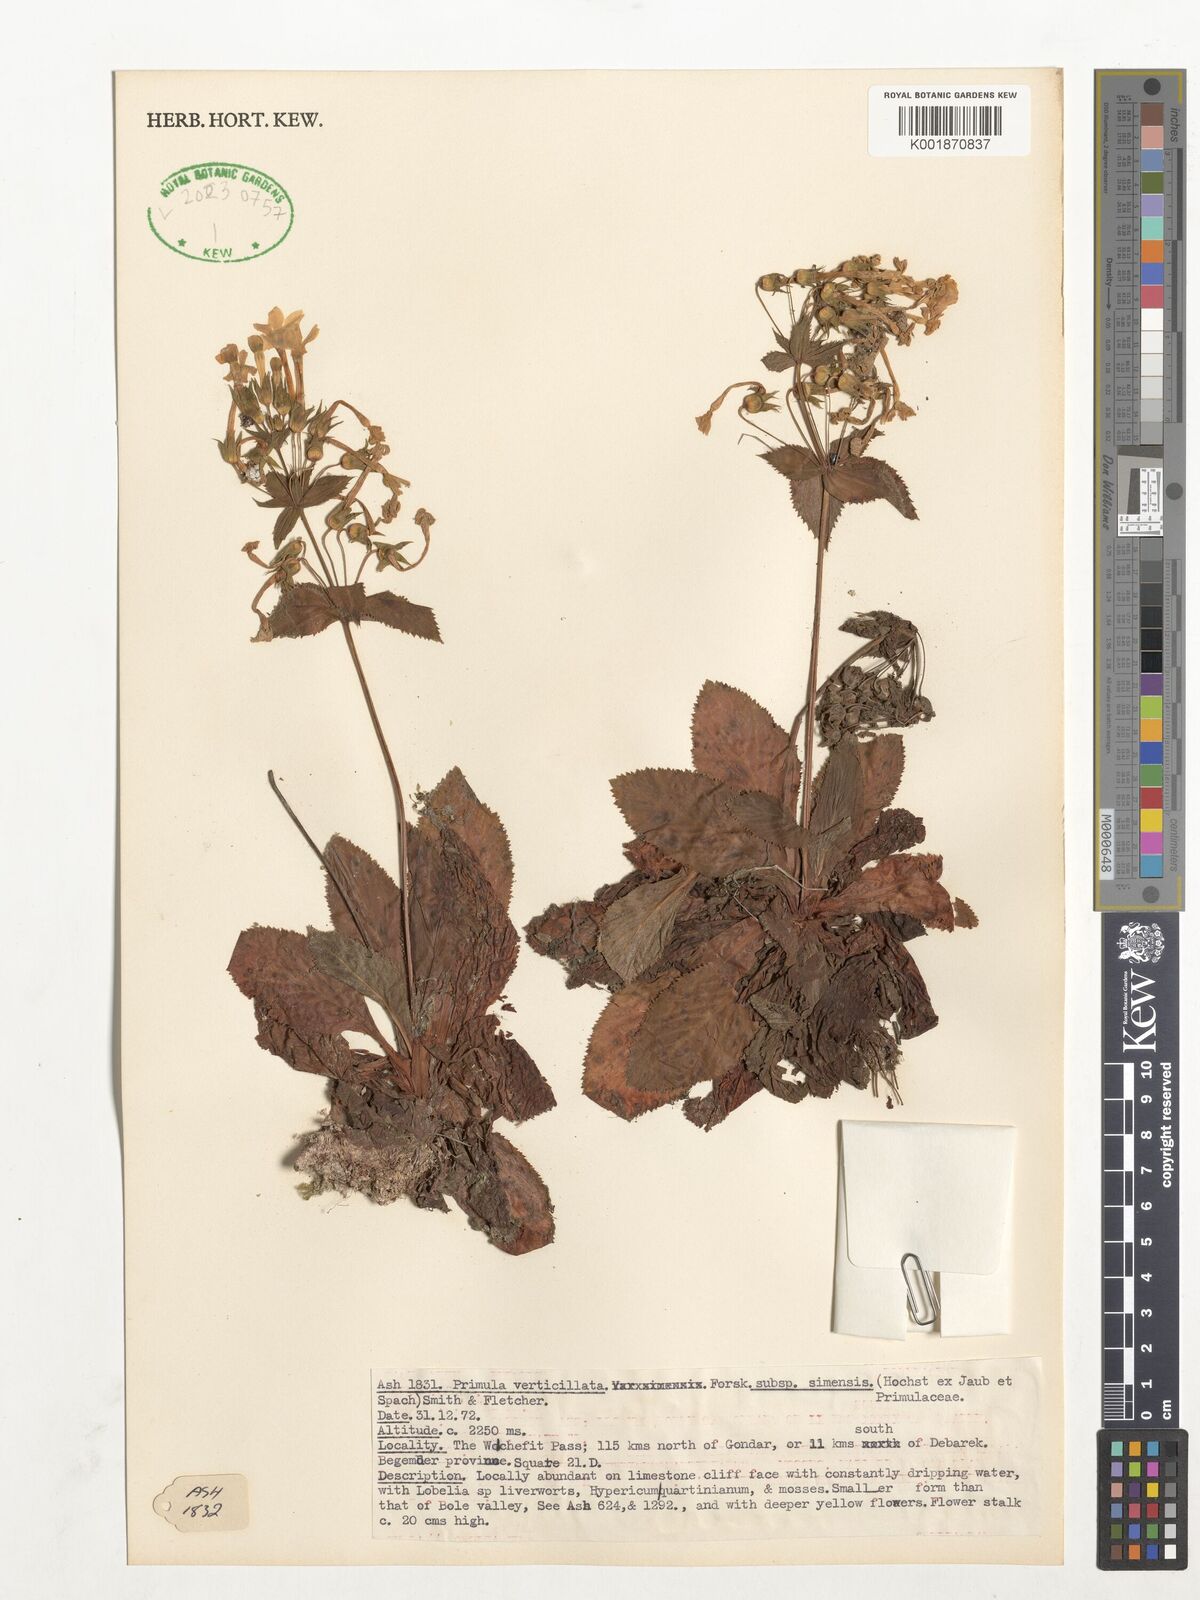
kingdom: Plantae
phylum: Tracheophyta
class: Magnoliopsida
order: Ericales
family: Primulaceae
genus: Evotrochis
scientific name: Evotrochis simensis
